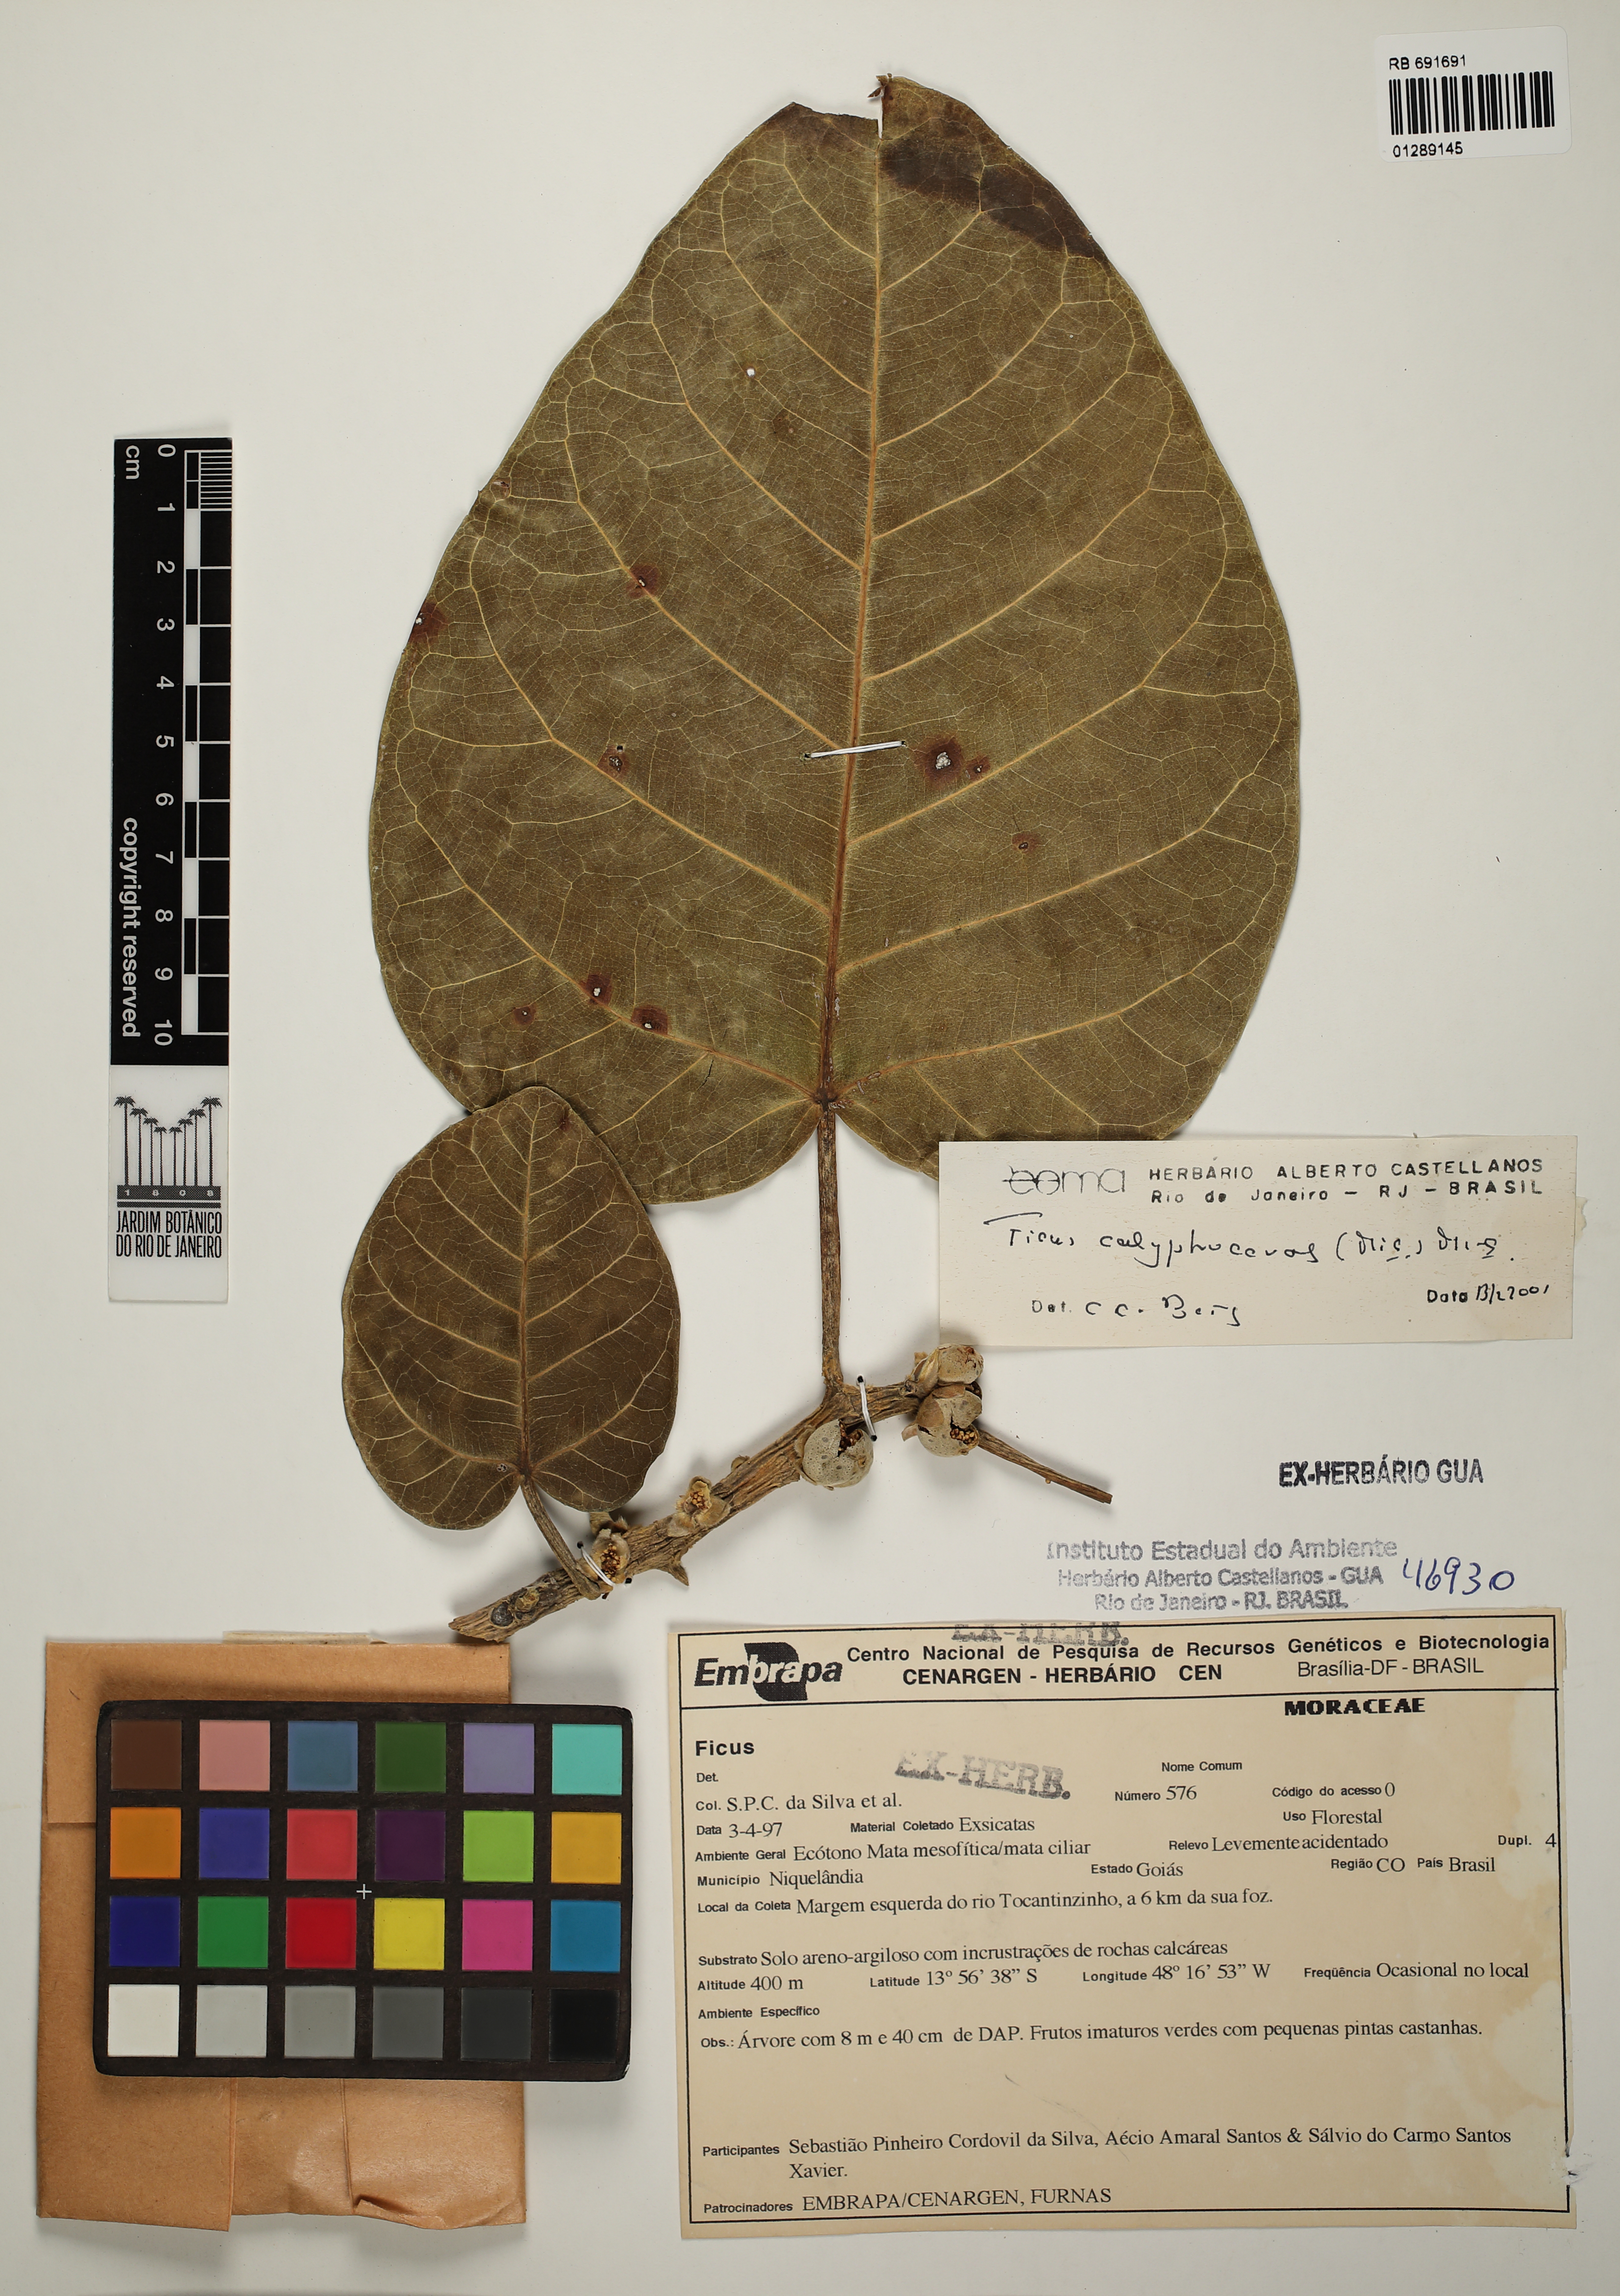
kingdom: Plantae
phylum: Tracheophyta
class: Magnoliopsida
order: Rosales
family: Moraceae
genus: Ficus
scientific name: Ficus calyptroceras
